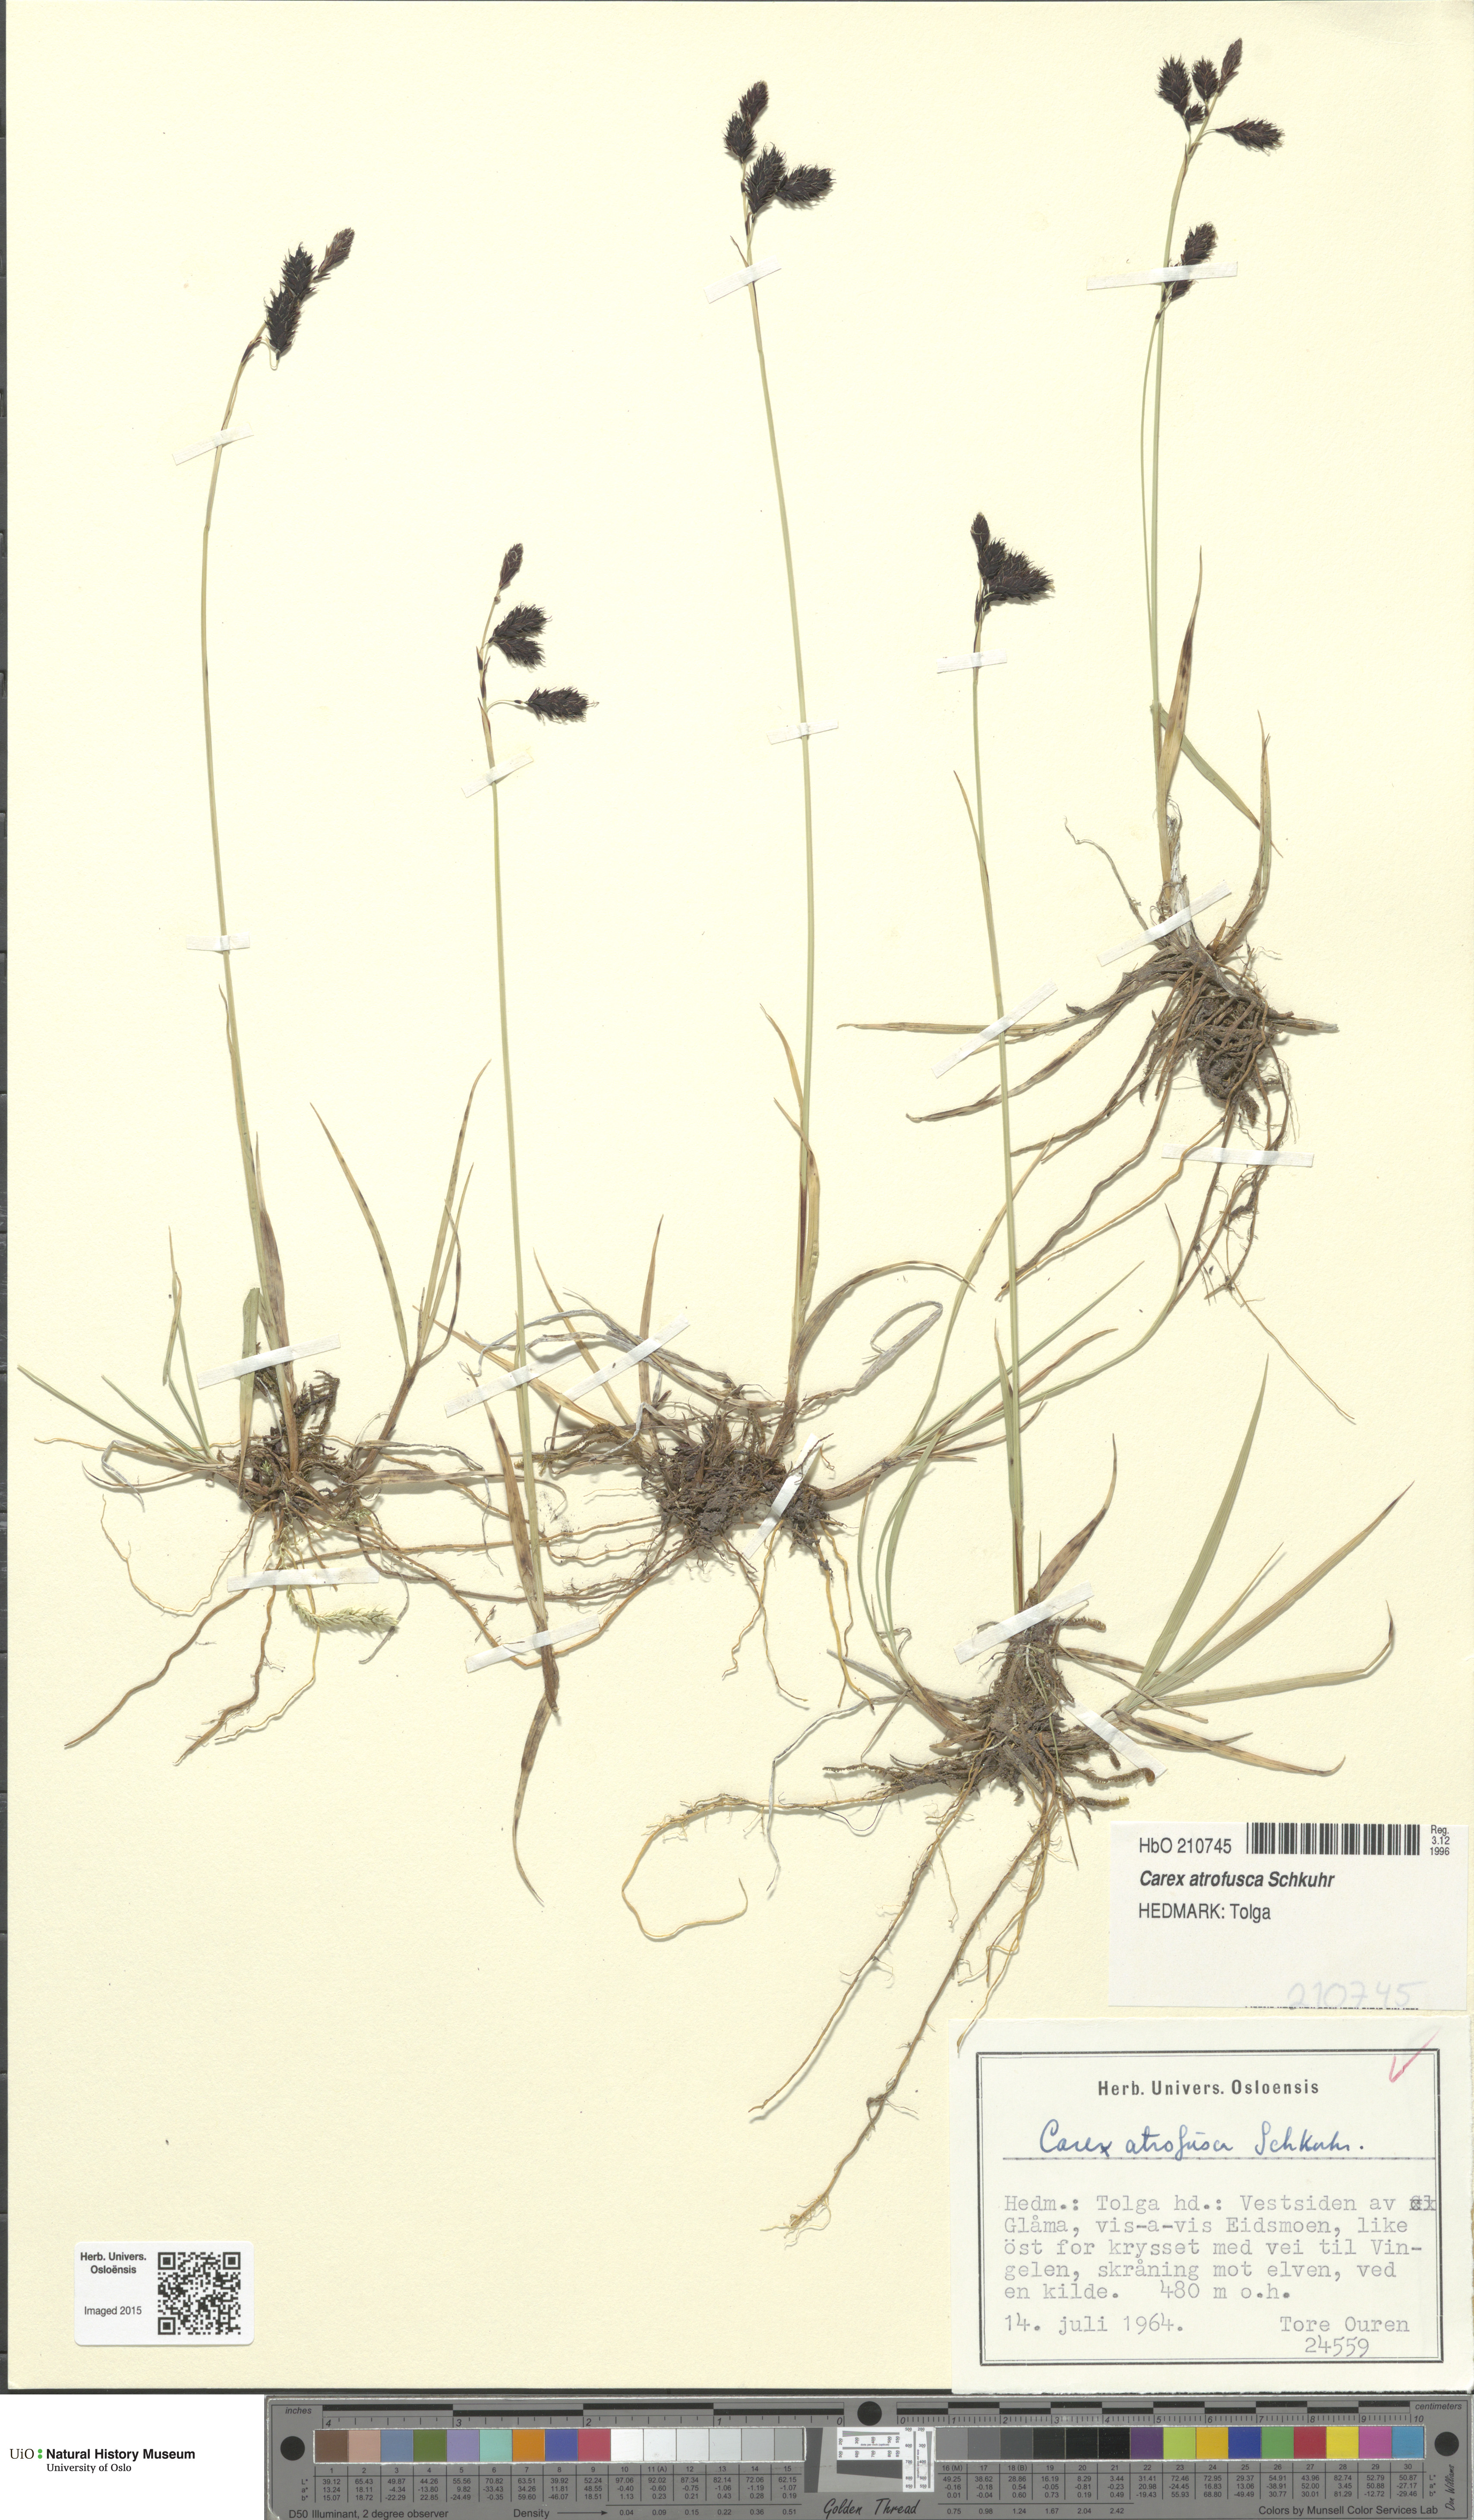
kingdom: Plantae
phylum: Tracheophyta
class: Liliopsida
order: Poales
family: Cyperaceae
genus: Carex
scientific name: Carex atrofusca
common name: Scorched alpine-sedge
